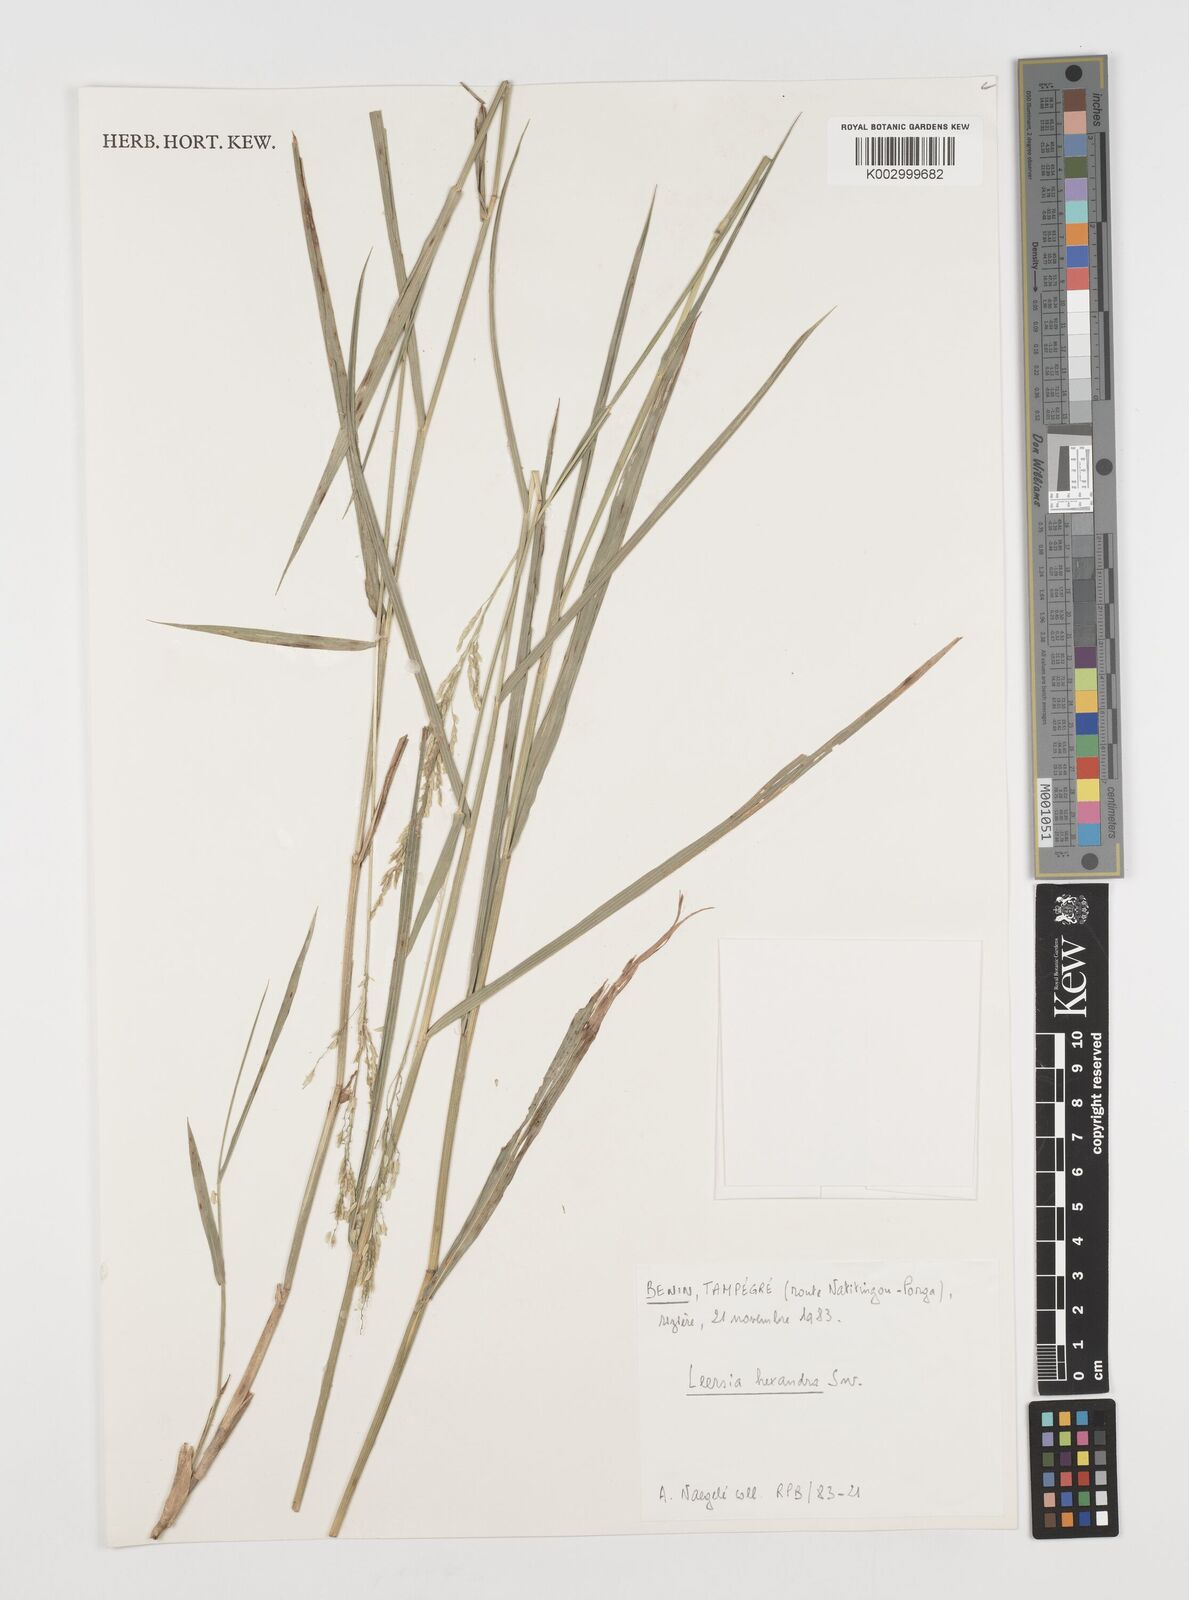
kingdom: Plantae
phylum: Tracheophyta
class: Liliopsida
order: Poales
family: Poaceae
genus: Leersia
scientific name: Leersia hexandra
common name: Southern cut grass
